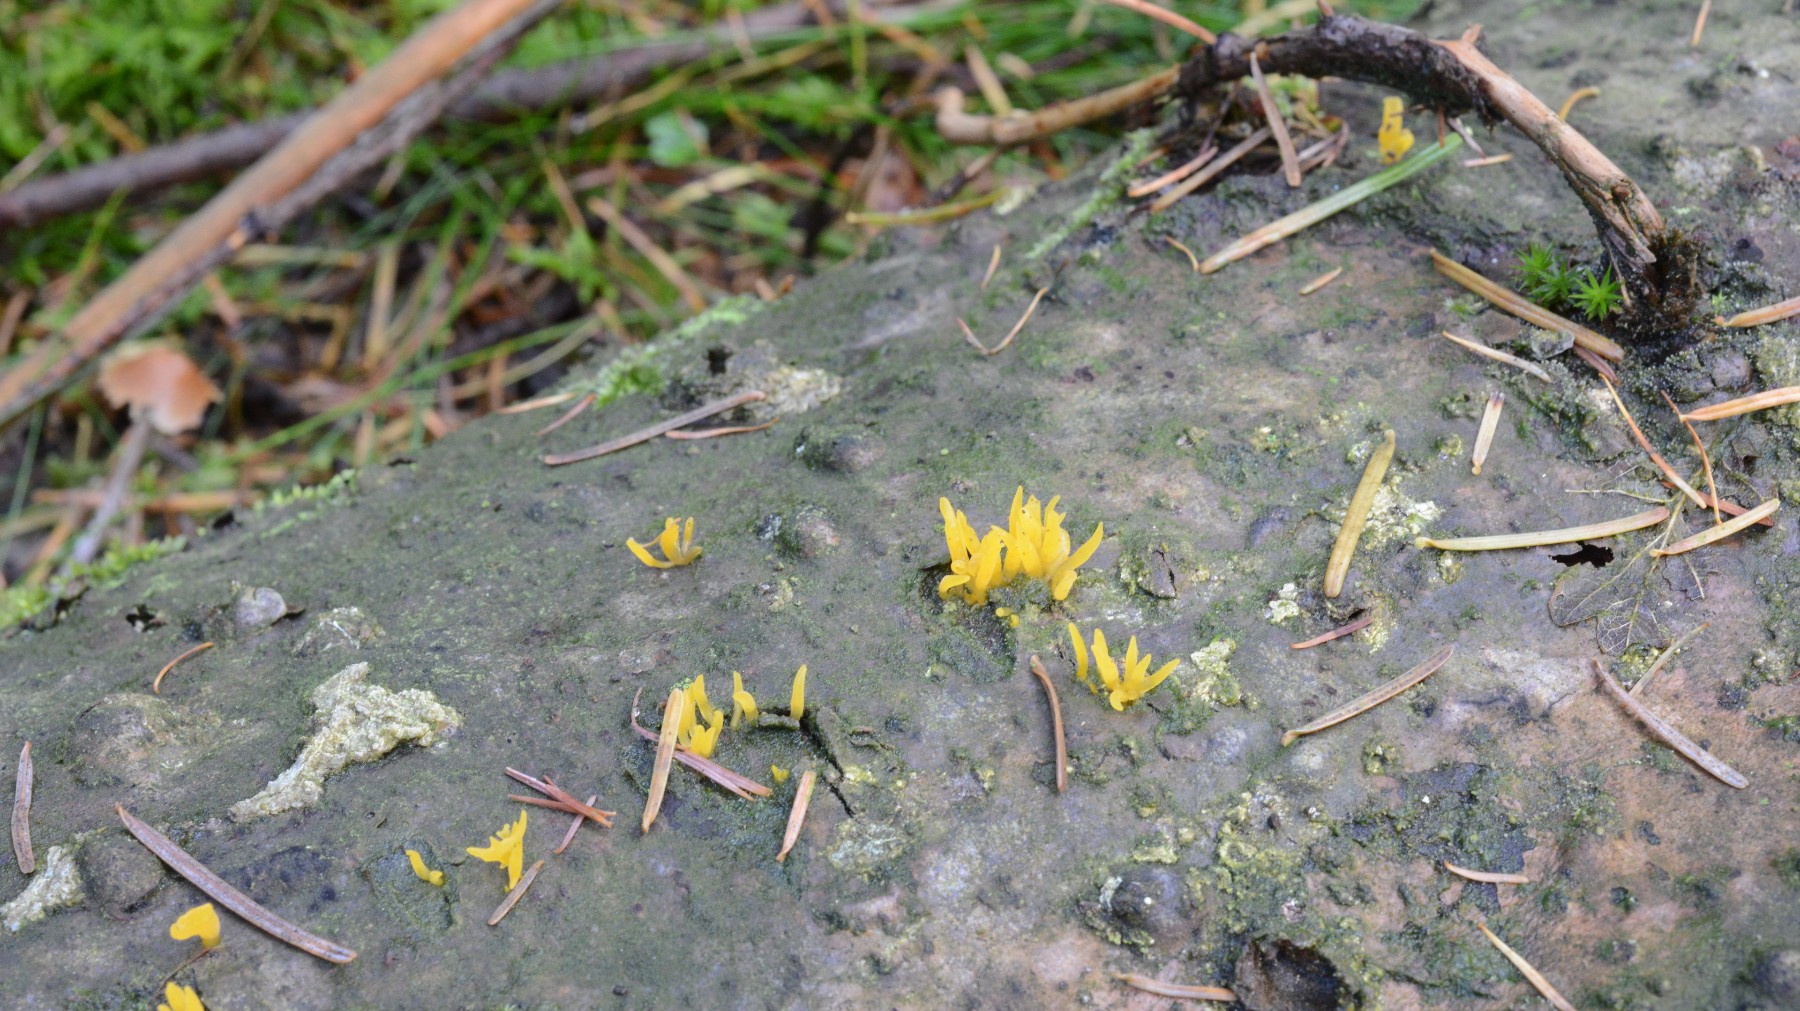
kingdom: Fungi
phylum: Basidiomycota
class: Dacrymycetes
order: Dacrymycetales
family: Dacrymycetaceae
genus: Calocera
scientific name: Calocera furcata
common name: fyrre-guldgaffel
